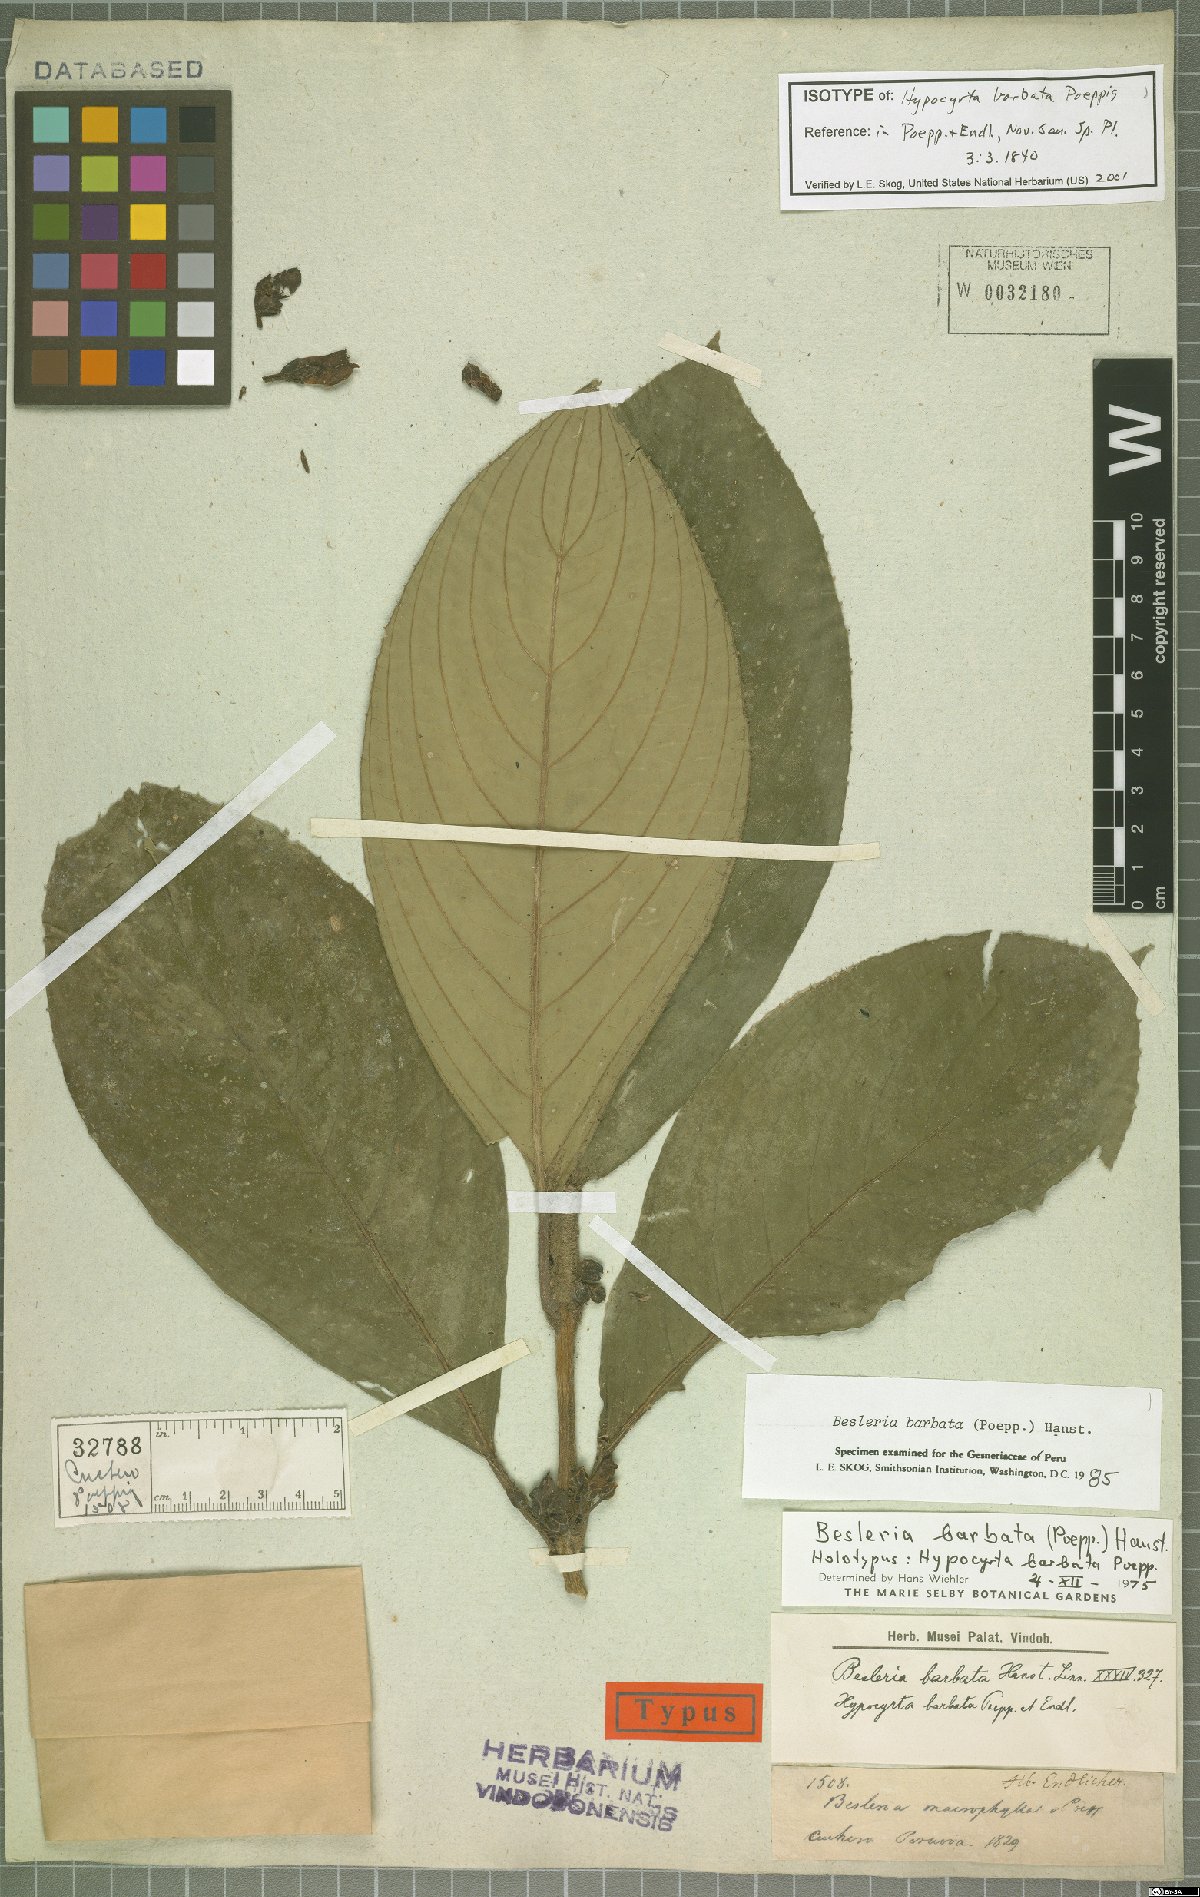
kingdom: Plantae
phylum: Tracheophyta
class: Magnoliopsida
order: Lamiales
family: Gesneriaceae
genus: Besleria
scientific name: Besleria barbata
